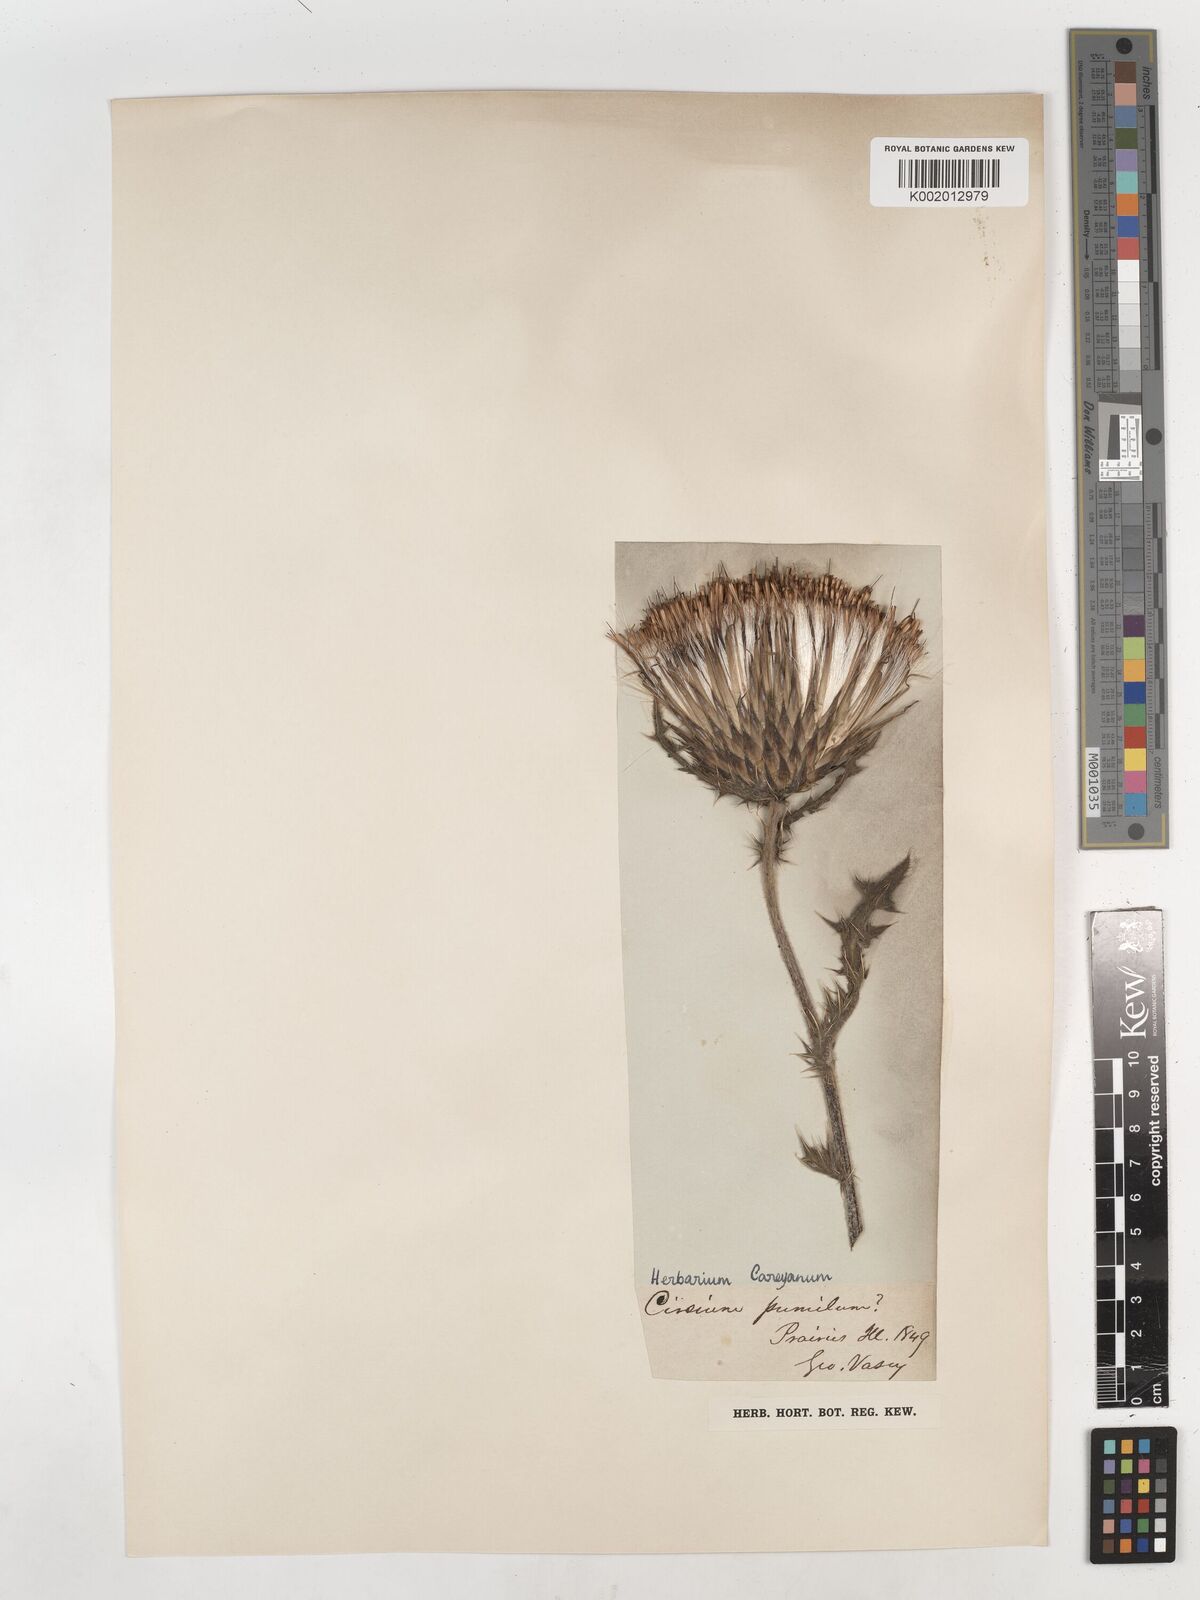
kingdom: Plantae
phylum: Tracheophyta
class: Magnoliopsida
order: Asterales
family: Asteraceae
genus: Cirsium
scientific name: Cirsium pumilum
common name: Pasture thistle
